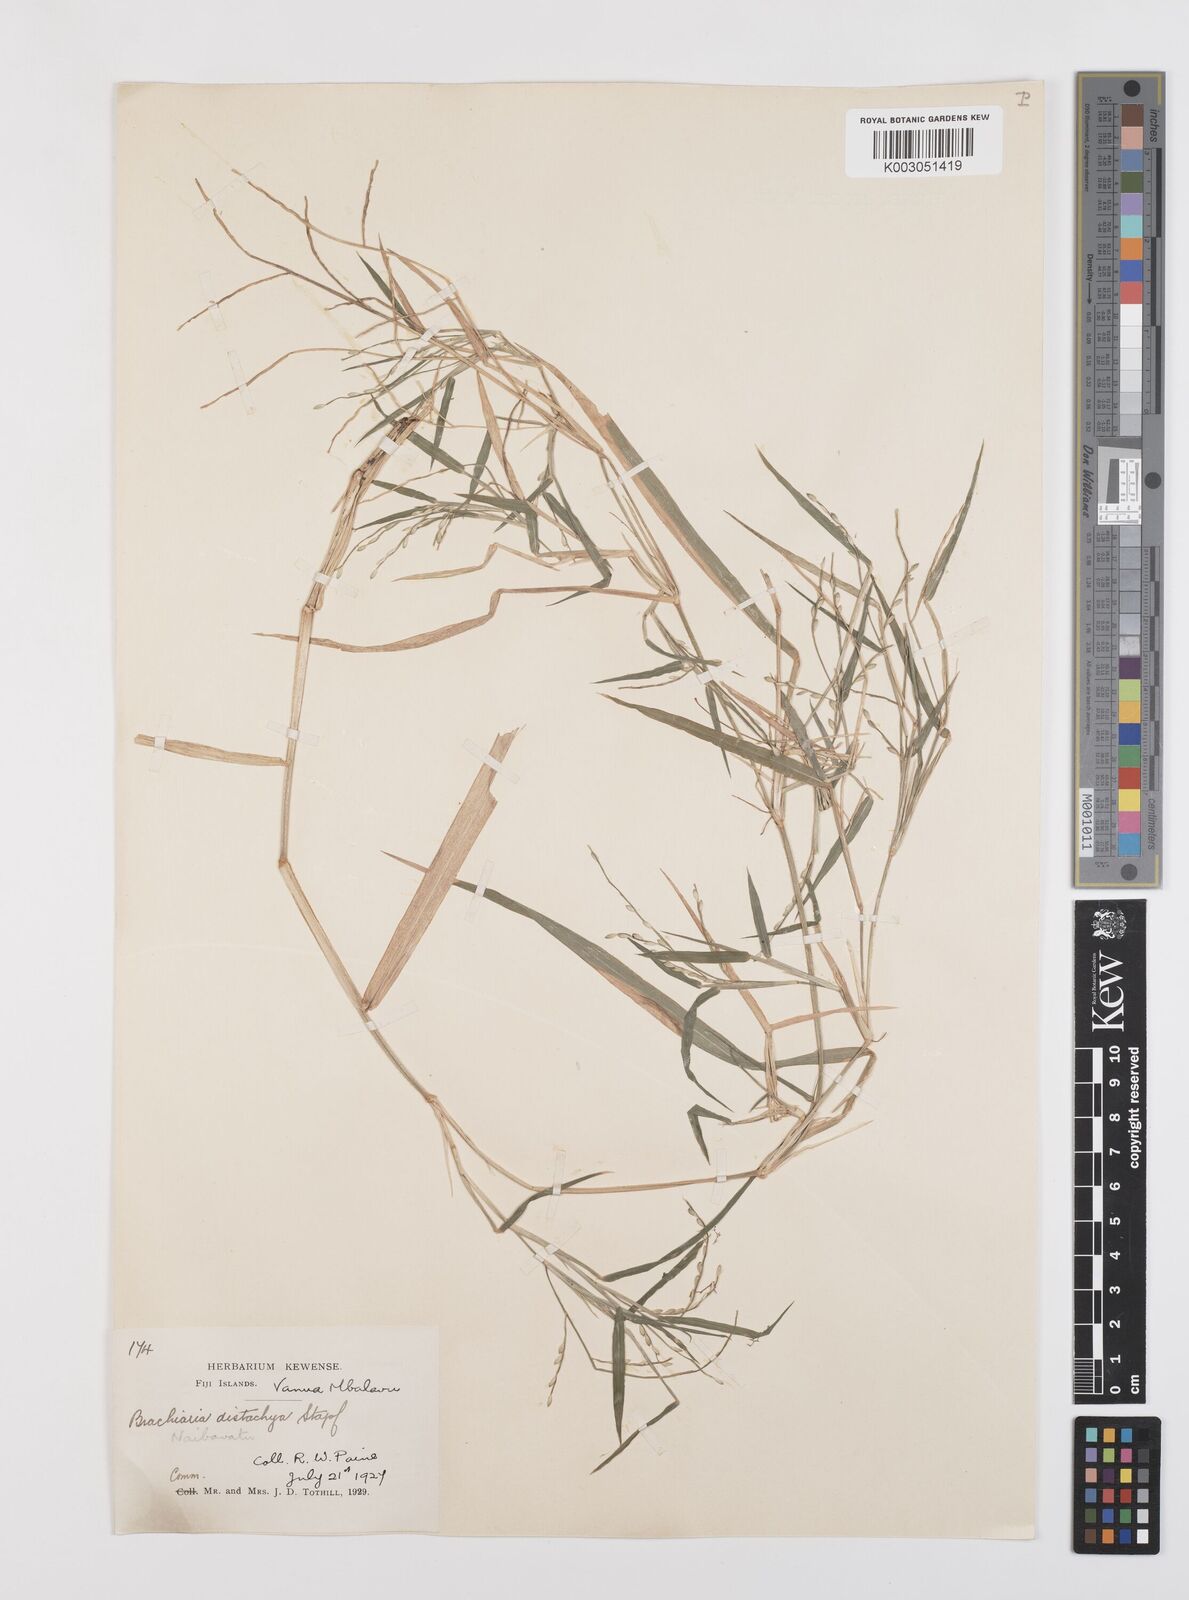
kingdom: Plantae
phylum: Tracheophyta
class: Liliopsida
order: Poales
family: Poaceae
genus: Urochloa
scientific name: Urochloa subquadripara
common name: Armgrass millet
